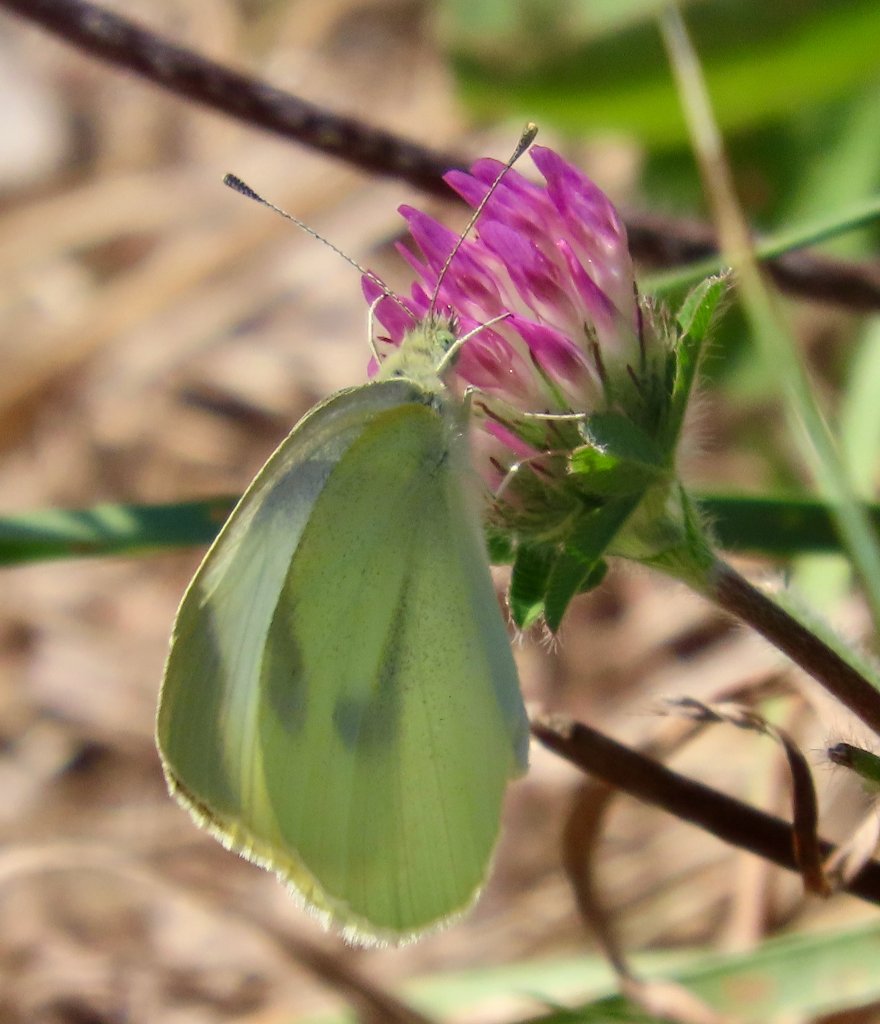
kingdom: Animalia
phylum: Arthropoda
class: Insecta
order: Lepidoptera
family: Pieridae
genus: Pieris
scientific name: Pieris rapae
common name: Cabbage White
